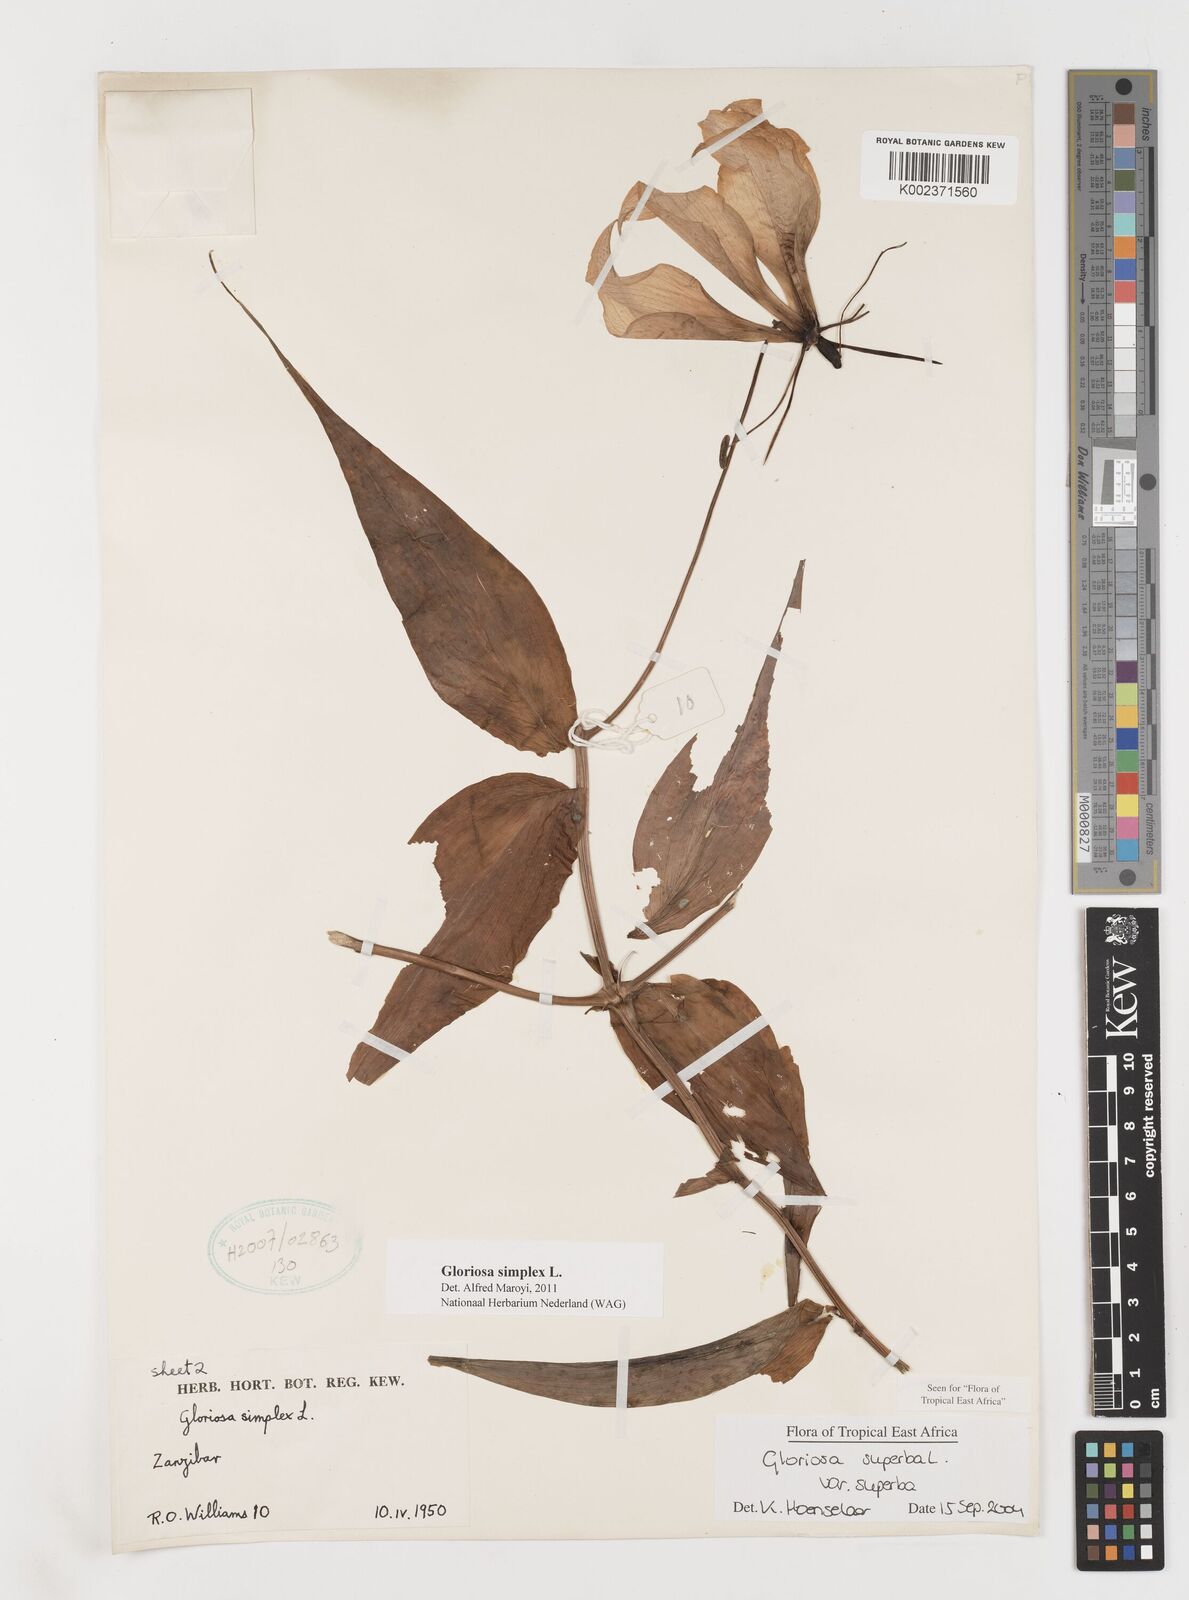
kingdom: Plantae
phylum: Tracheophyta
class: Liliopsida
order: Liliales
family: Colchicaceae
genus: Gloriosa
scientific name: Gloriosa simplex
